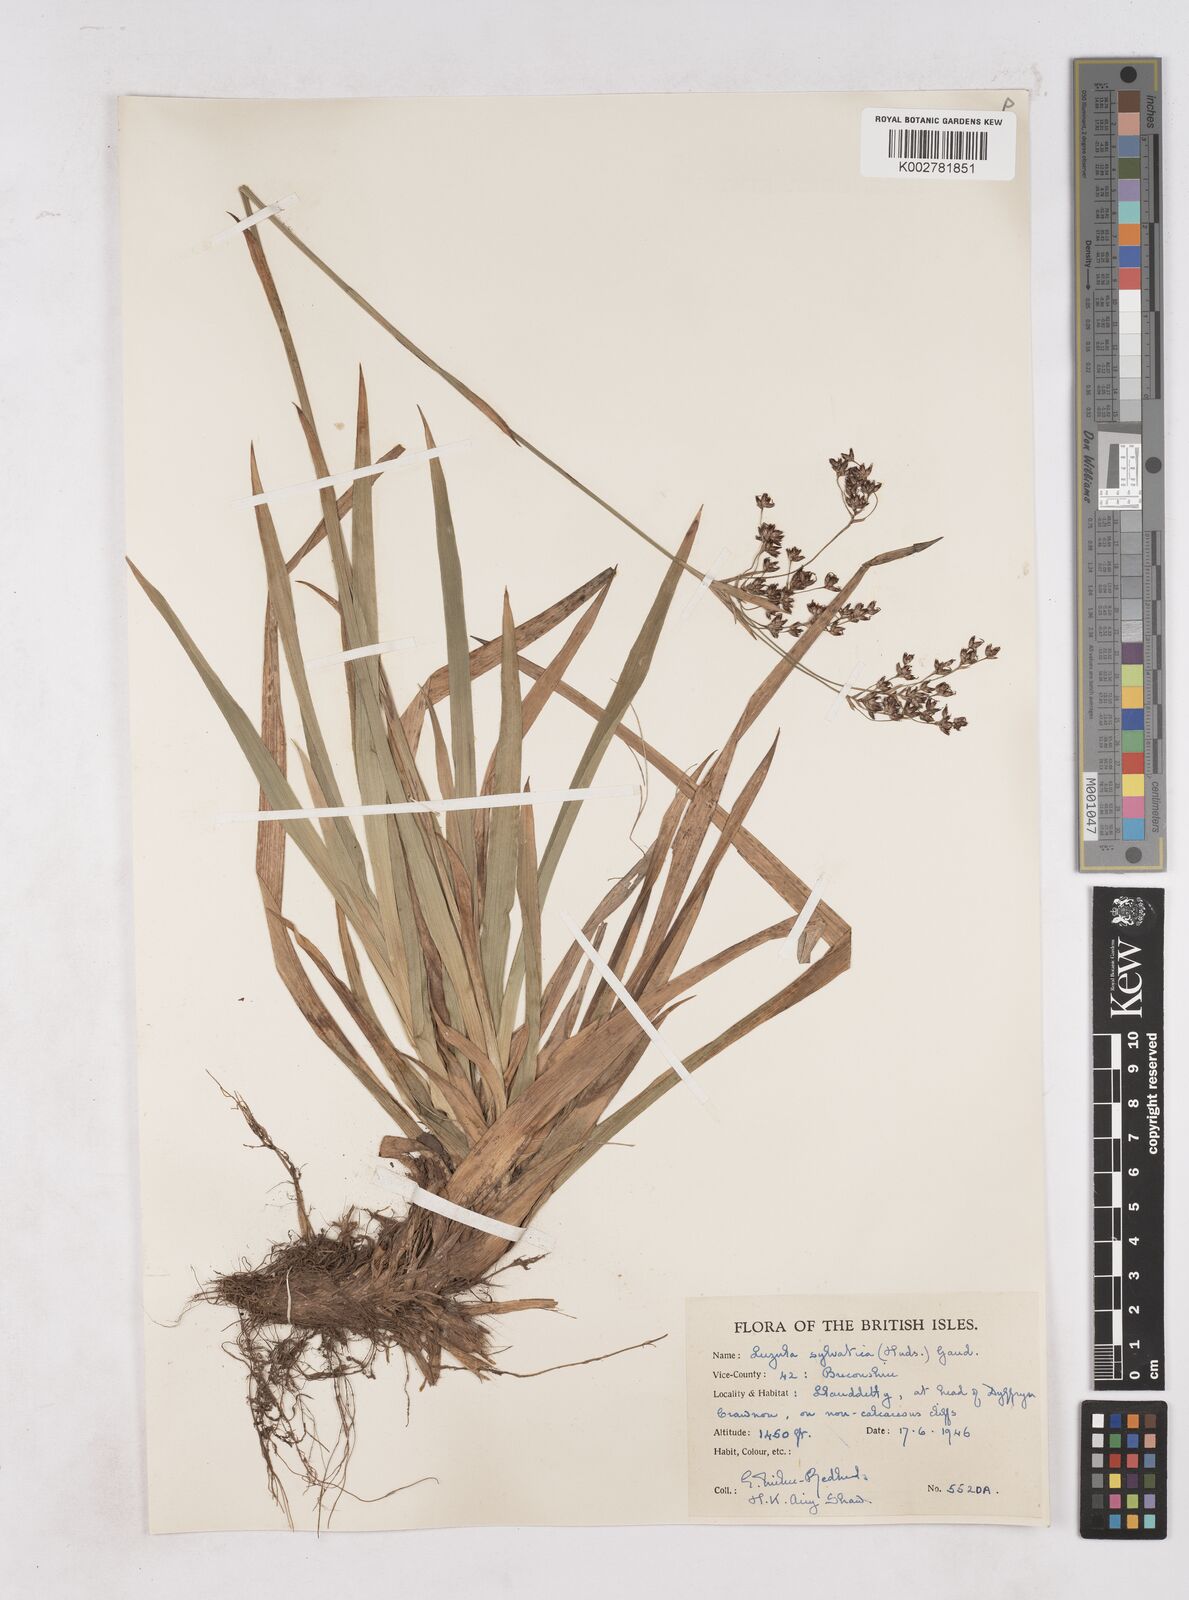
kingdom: Plantae
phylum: Tracheophyta
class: Liliopsida
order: Poales
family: Juncaceae
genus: Luzula
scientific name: Luzula sylvatica
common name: Great wood-rush
